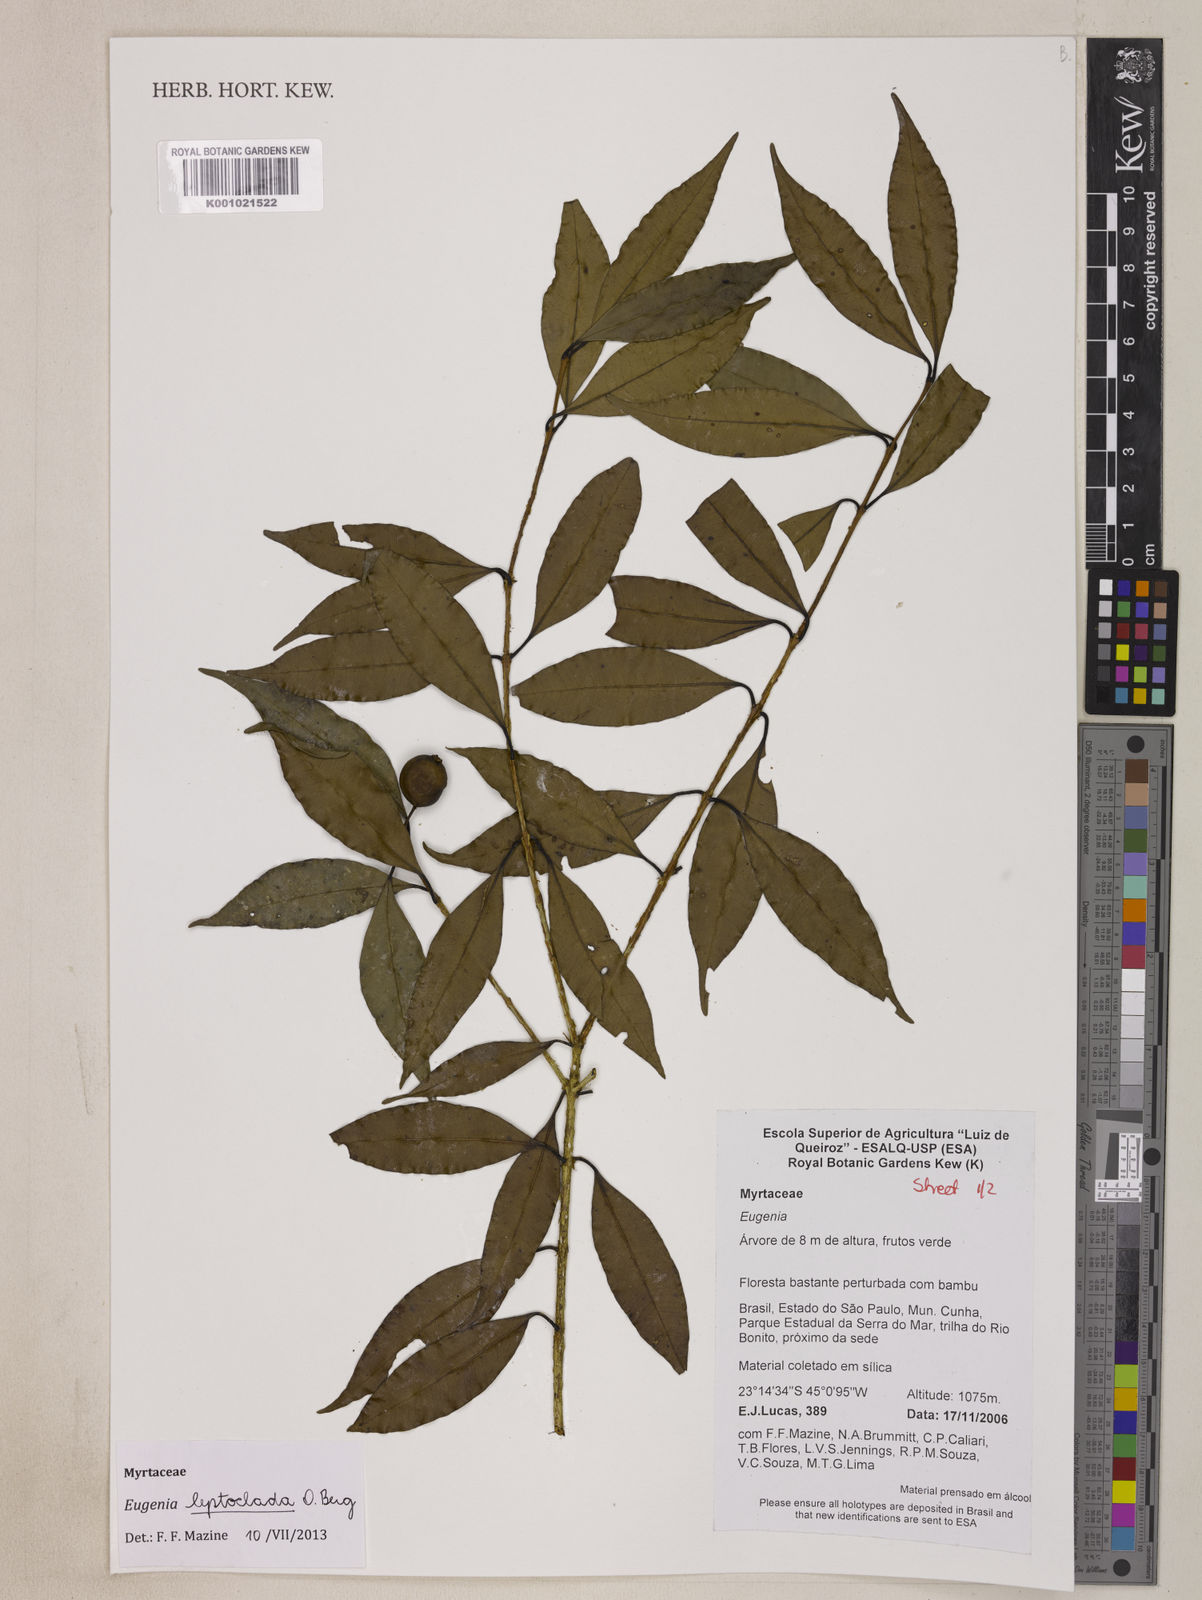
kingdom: Plantae
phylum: Tracheophyta
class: Magnoliopsida
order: Myrtales
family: Myrtaceae
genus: Eugenia
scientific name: Eugenia leptoclada
